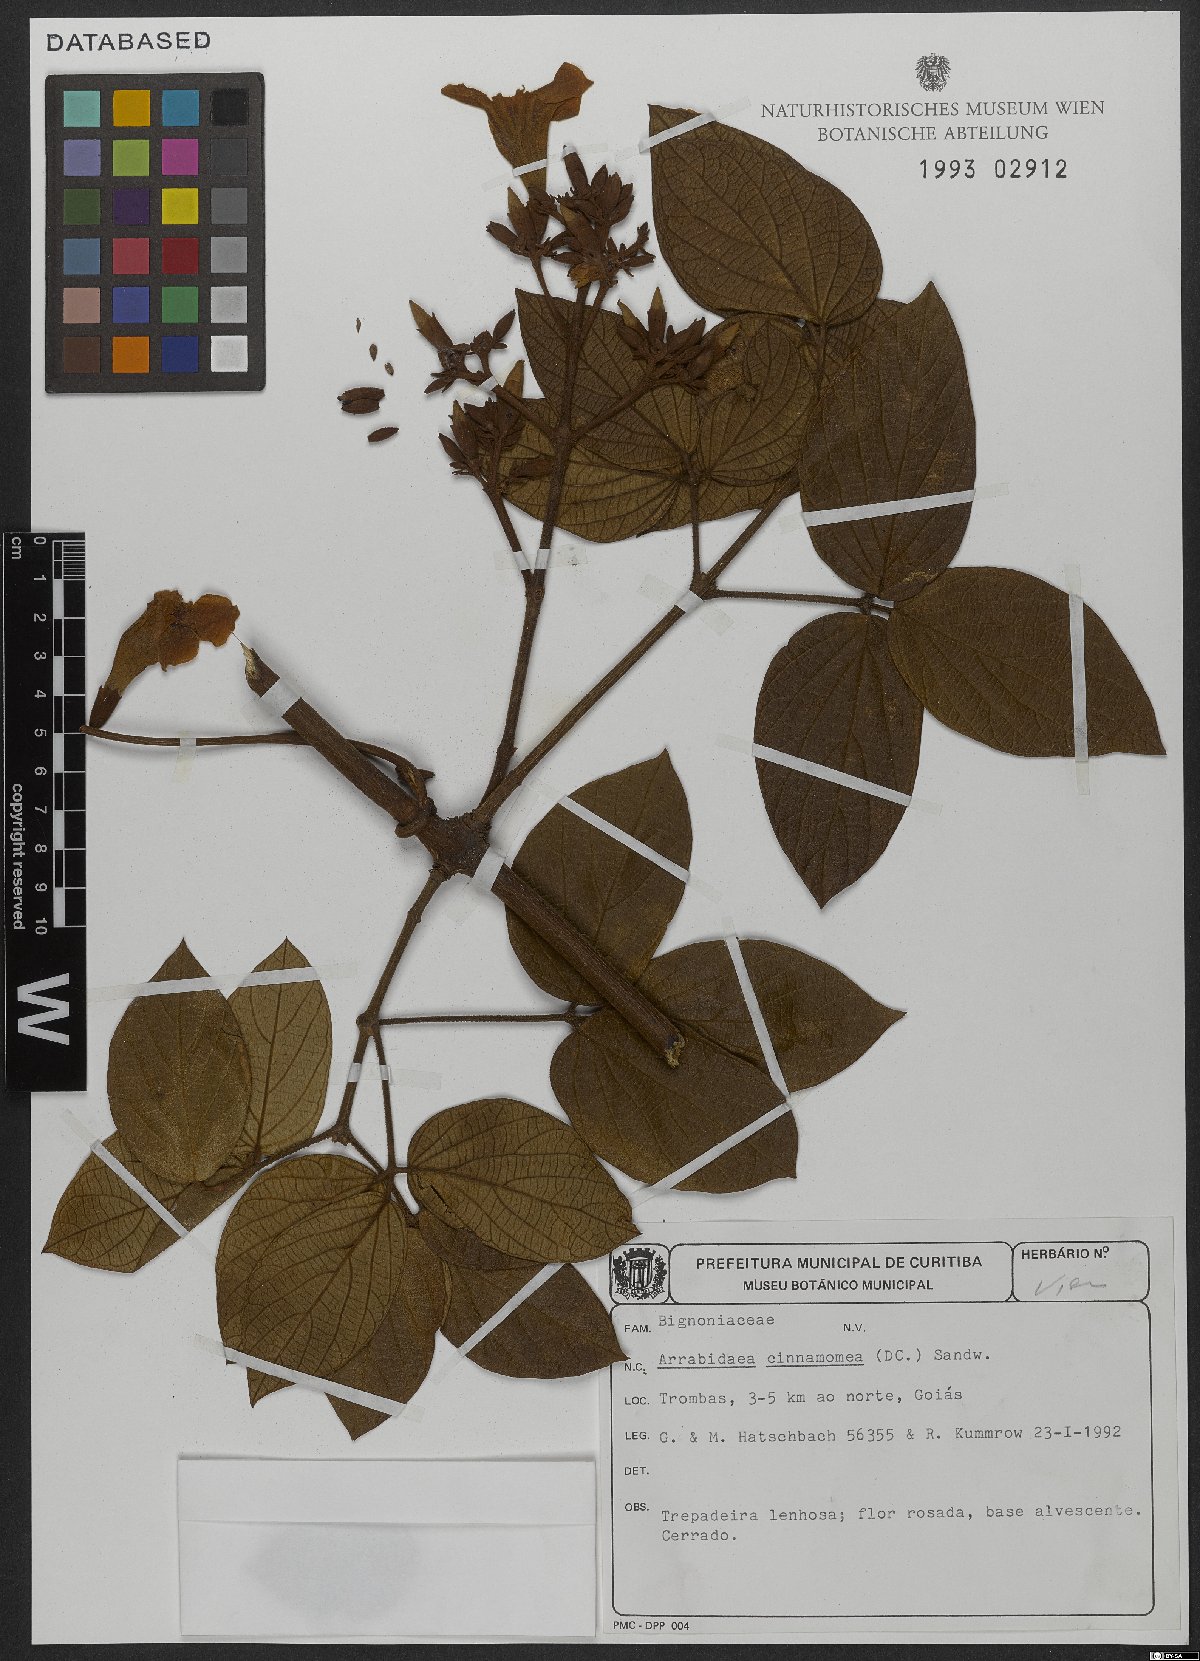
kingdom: Plantae
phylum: Tracheophyta
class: Magnoliopsida
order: Lamiales
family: Bignoniaceae
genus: Fridericia
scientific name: Fridericia cinnamomea
